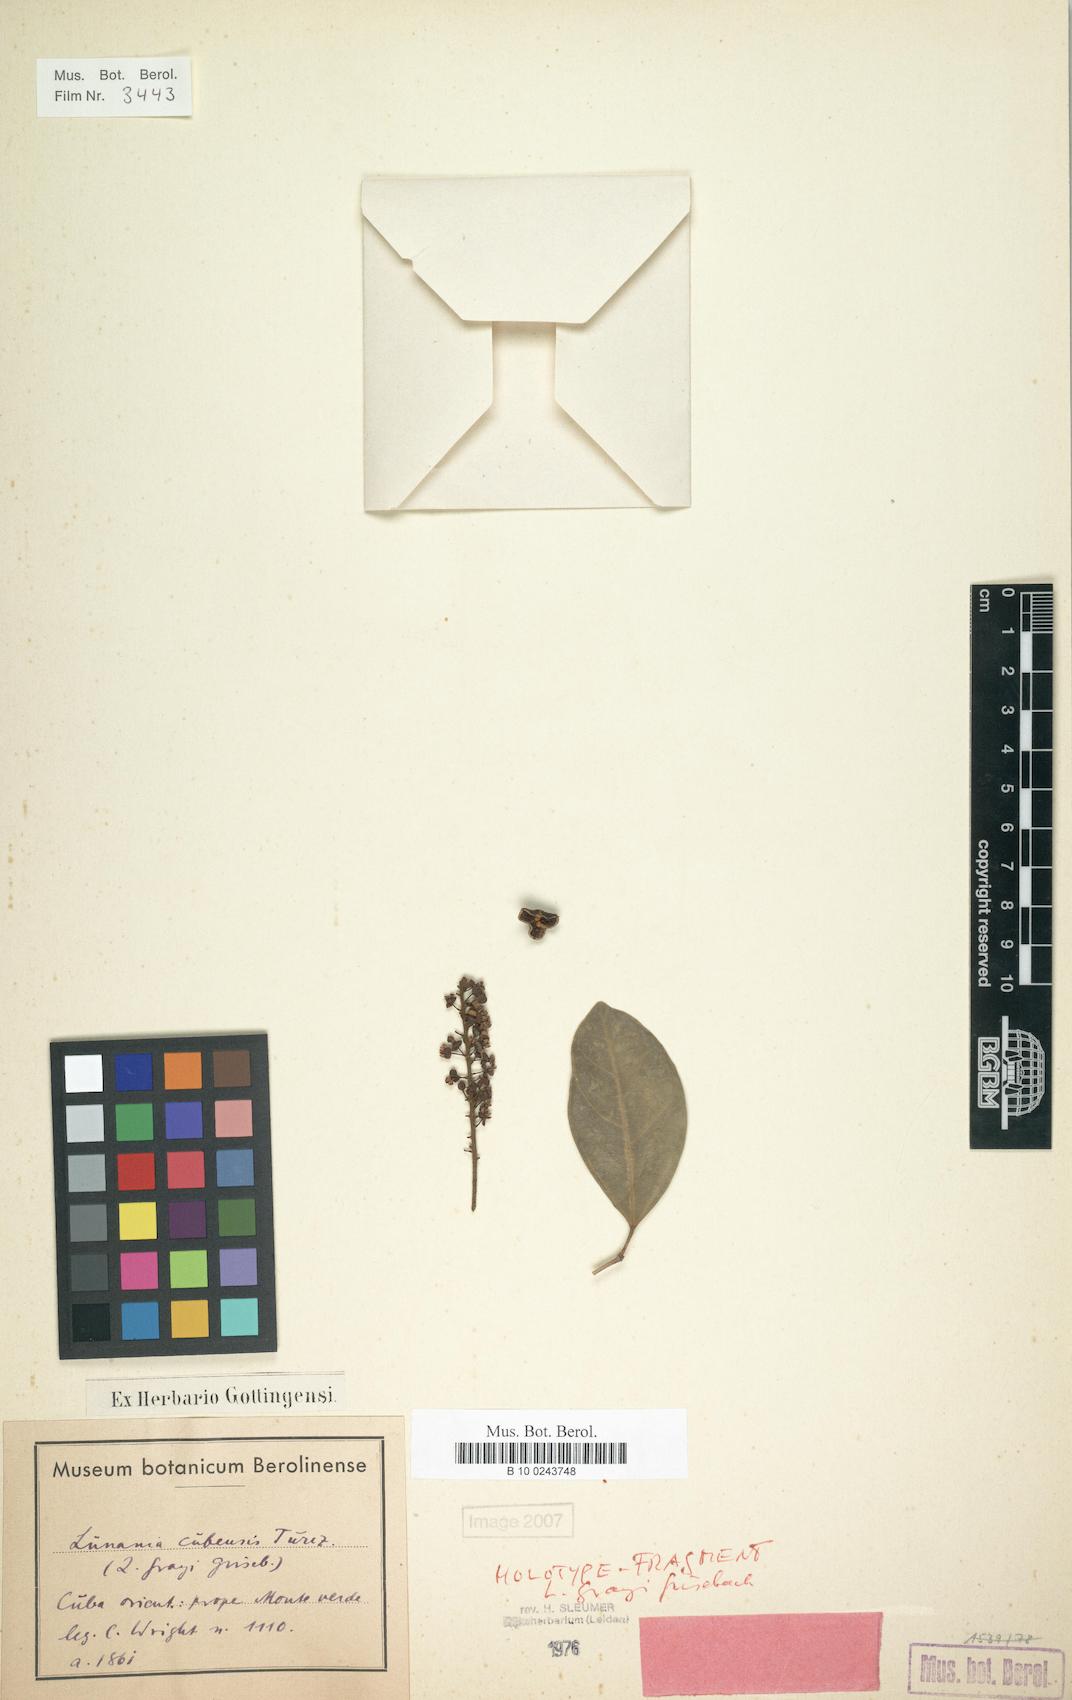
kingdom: Plantae
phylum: Tracheophyta
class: Magnoliopsida
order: Malpighiales
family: Salicaceae
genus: Lunania
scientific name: Lunania cubensis
